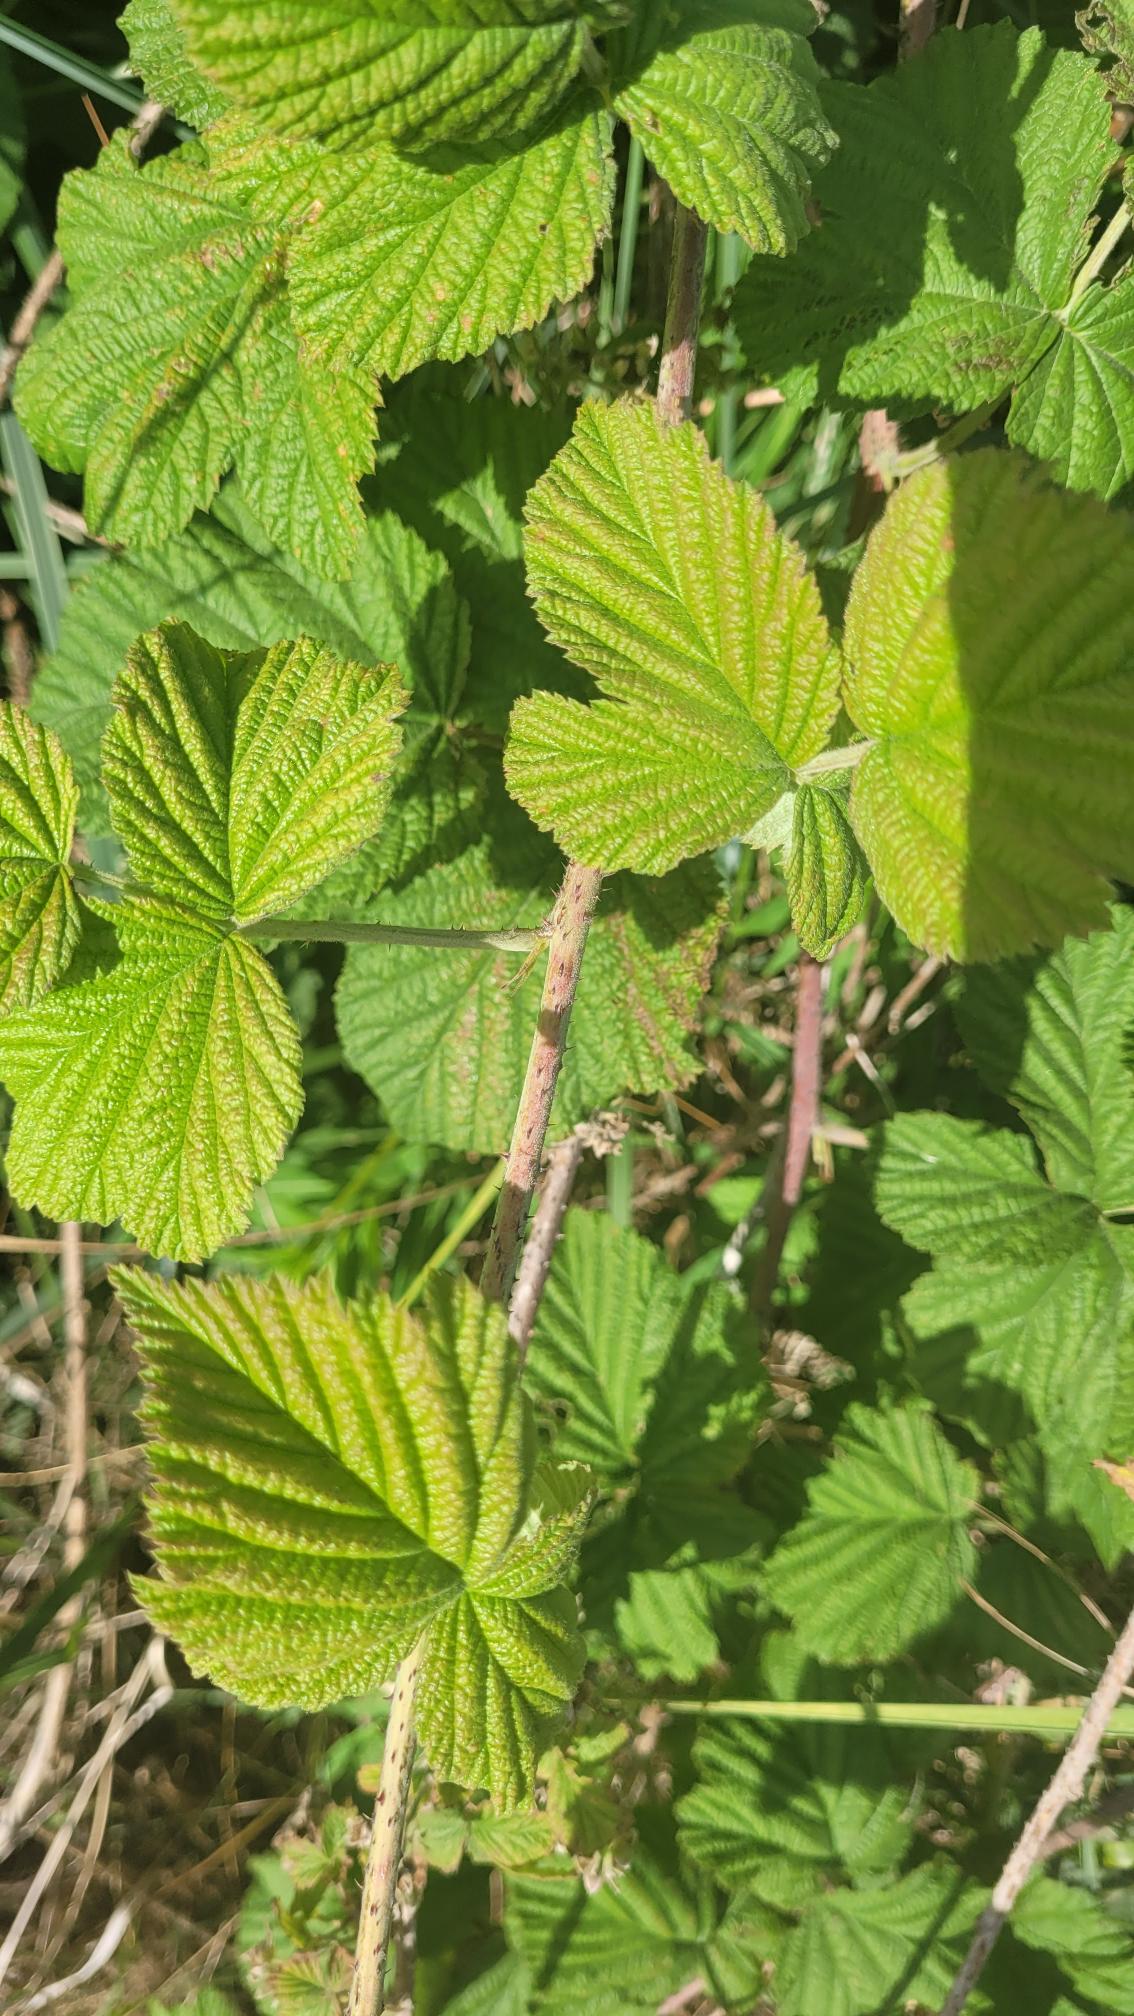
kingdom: Plantae
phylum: Tracheophyta
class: Magnoliopsida
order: Rosales
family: Rosaceae
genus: Rubus
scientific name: Rubus idaeus
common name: Hindbær
